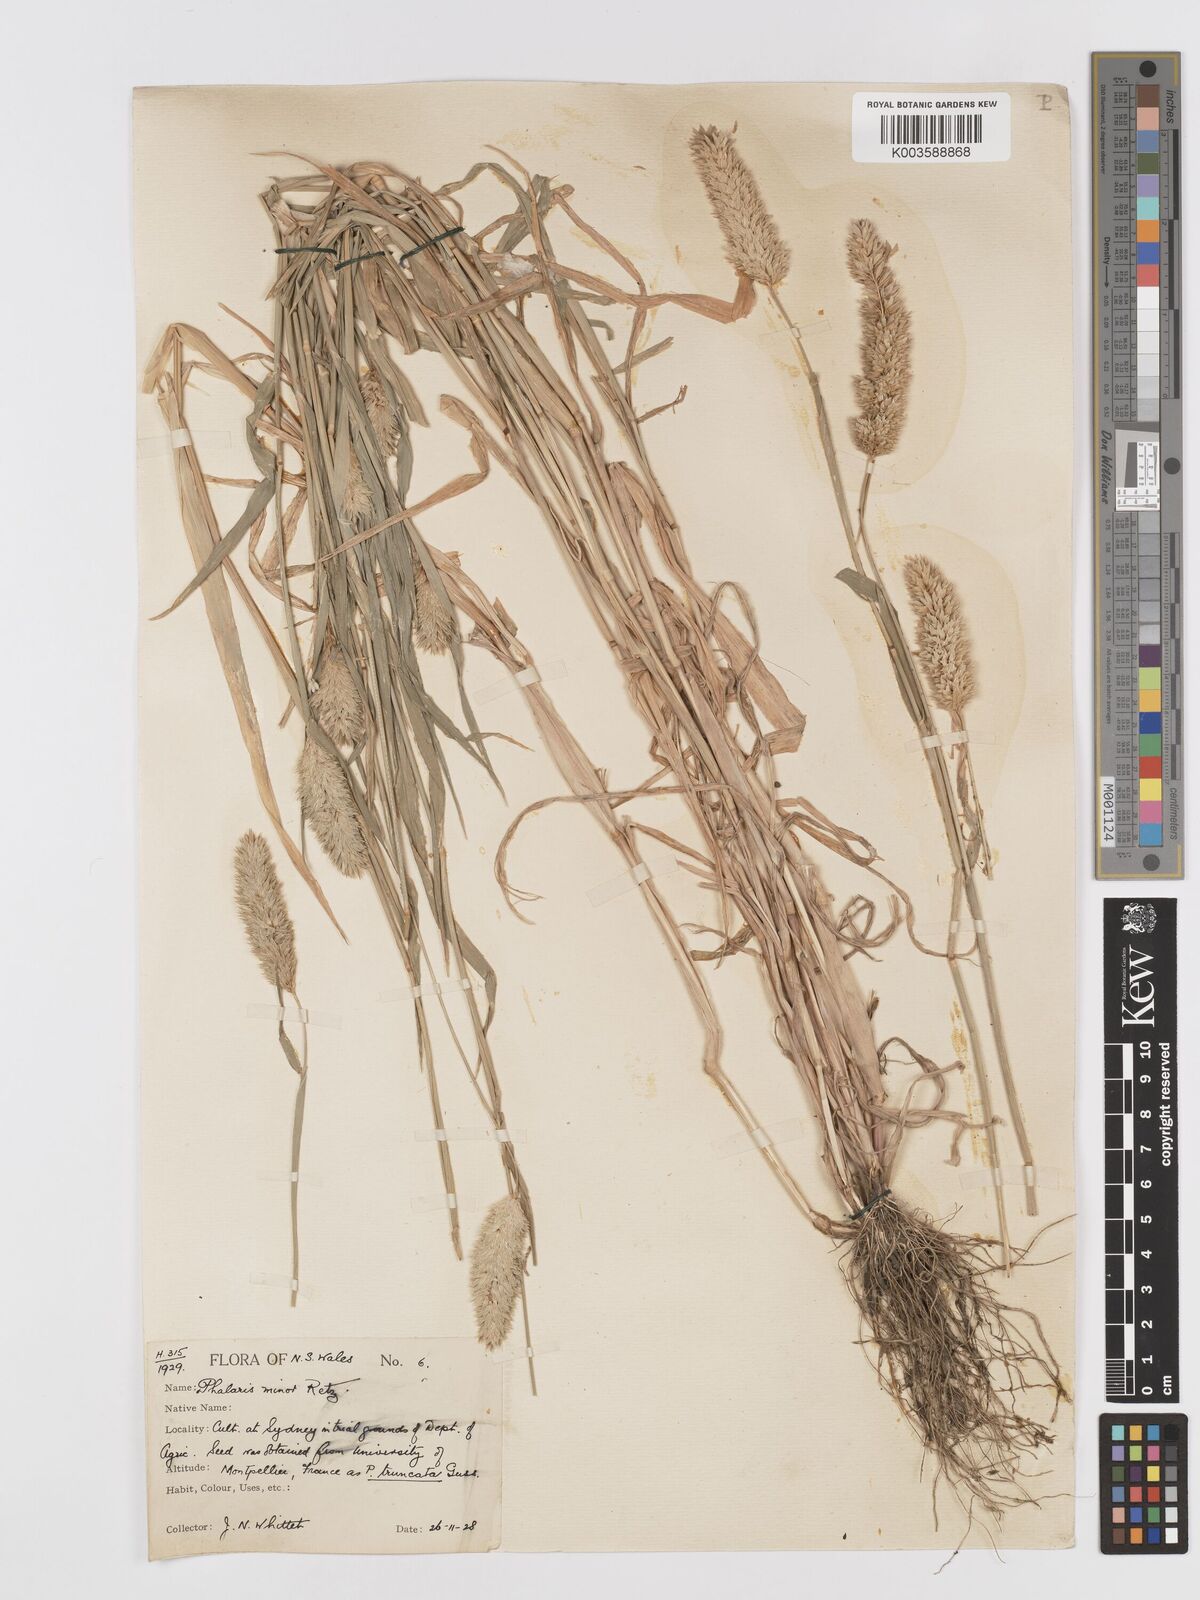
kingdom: Plantae
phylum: Tracheophyta
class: Liliopsida
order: Poales
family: Poaceae
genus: Phalaris
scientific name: Phalaris minor
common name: Littleseed canarygrass
